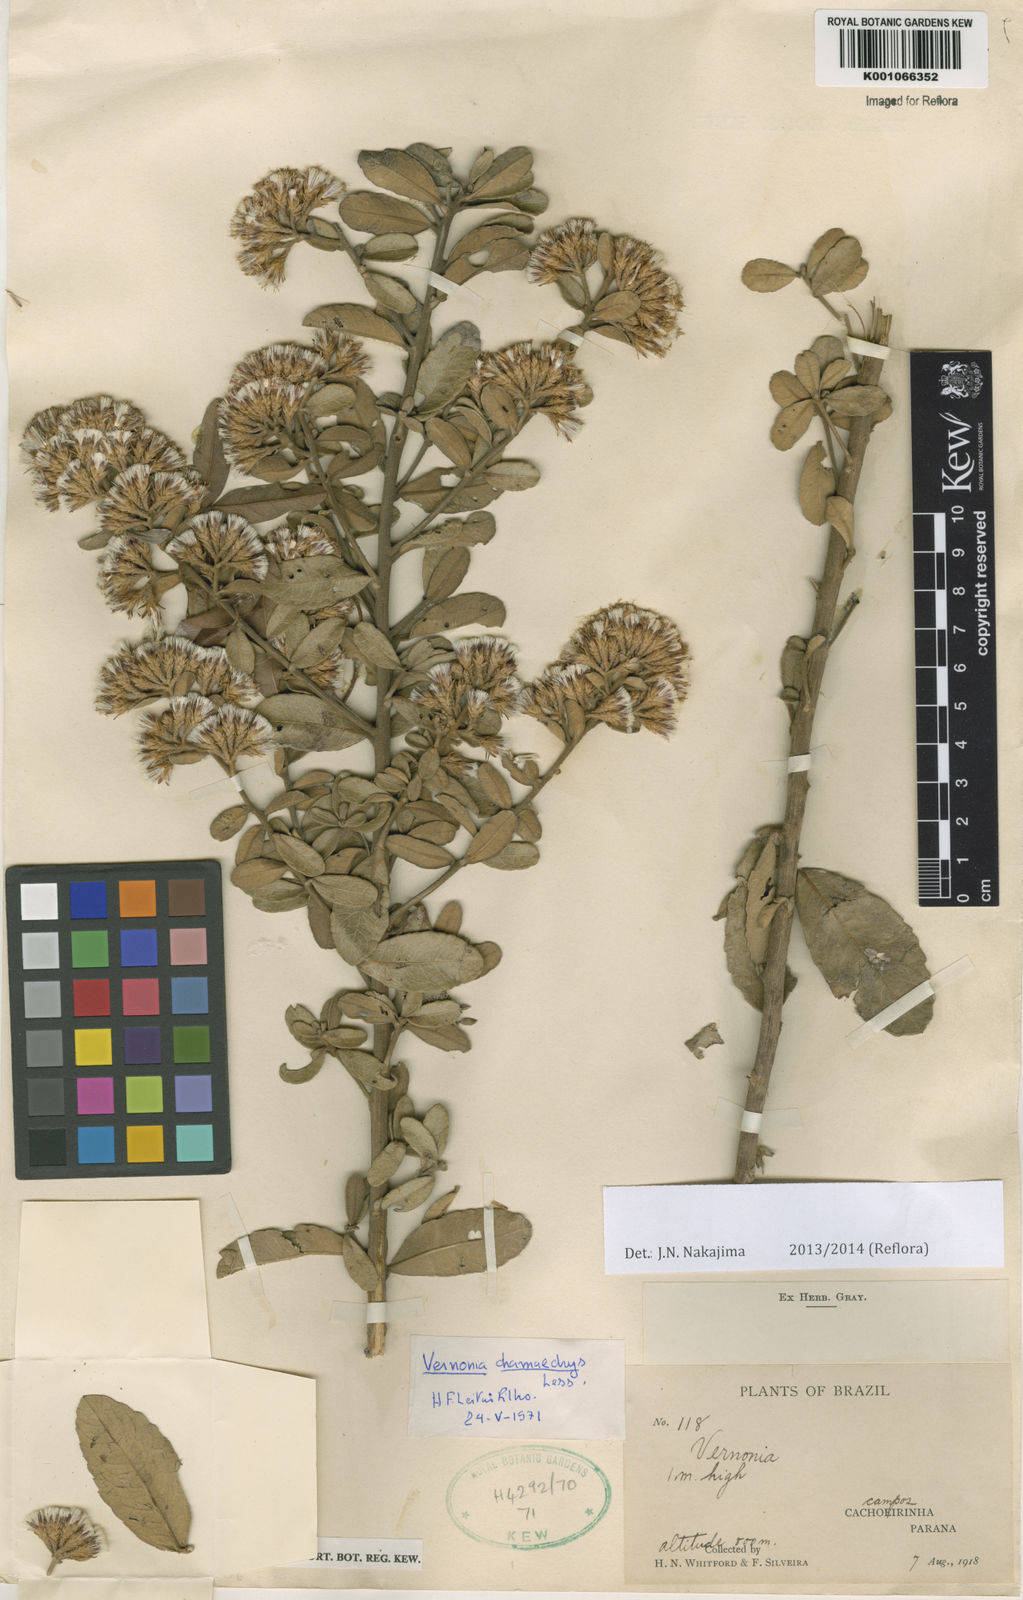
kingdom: Plantae
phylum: Tracheophyta
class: Magnoliopsida
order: Asterales
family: Asteraceae
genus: Vernonanthura
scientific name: Vernonanthura mucronulata
